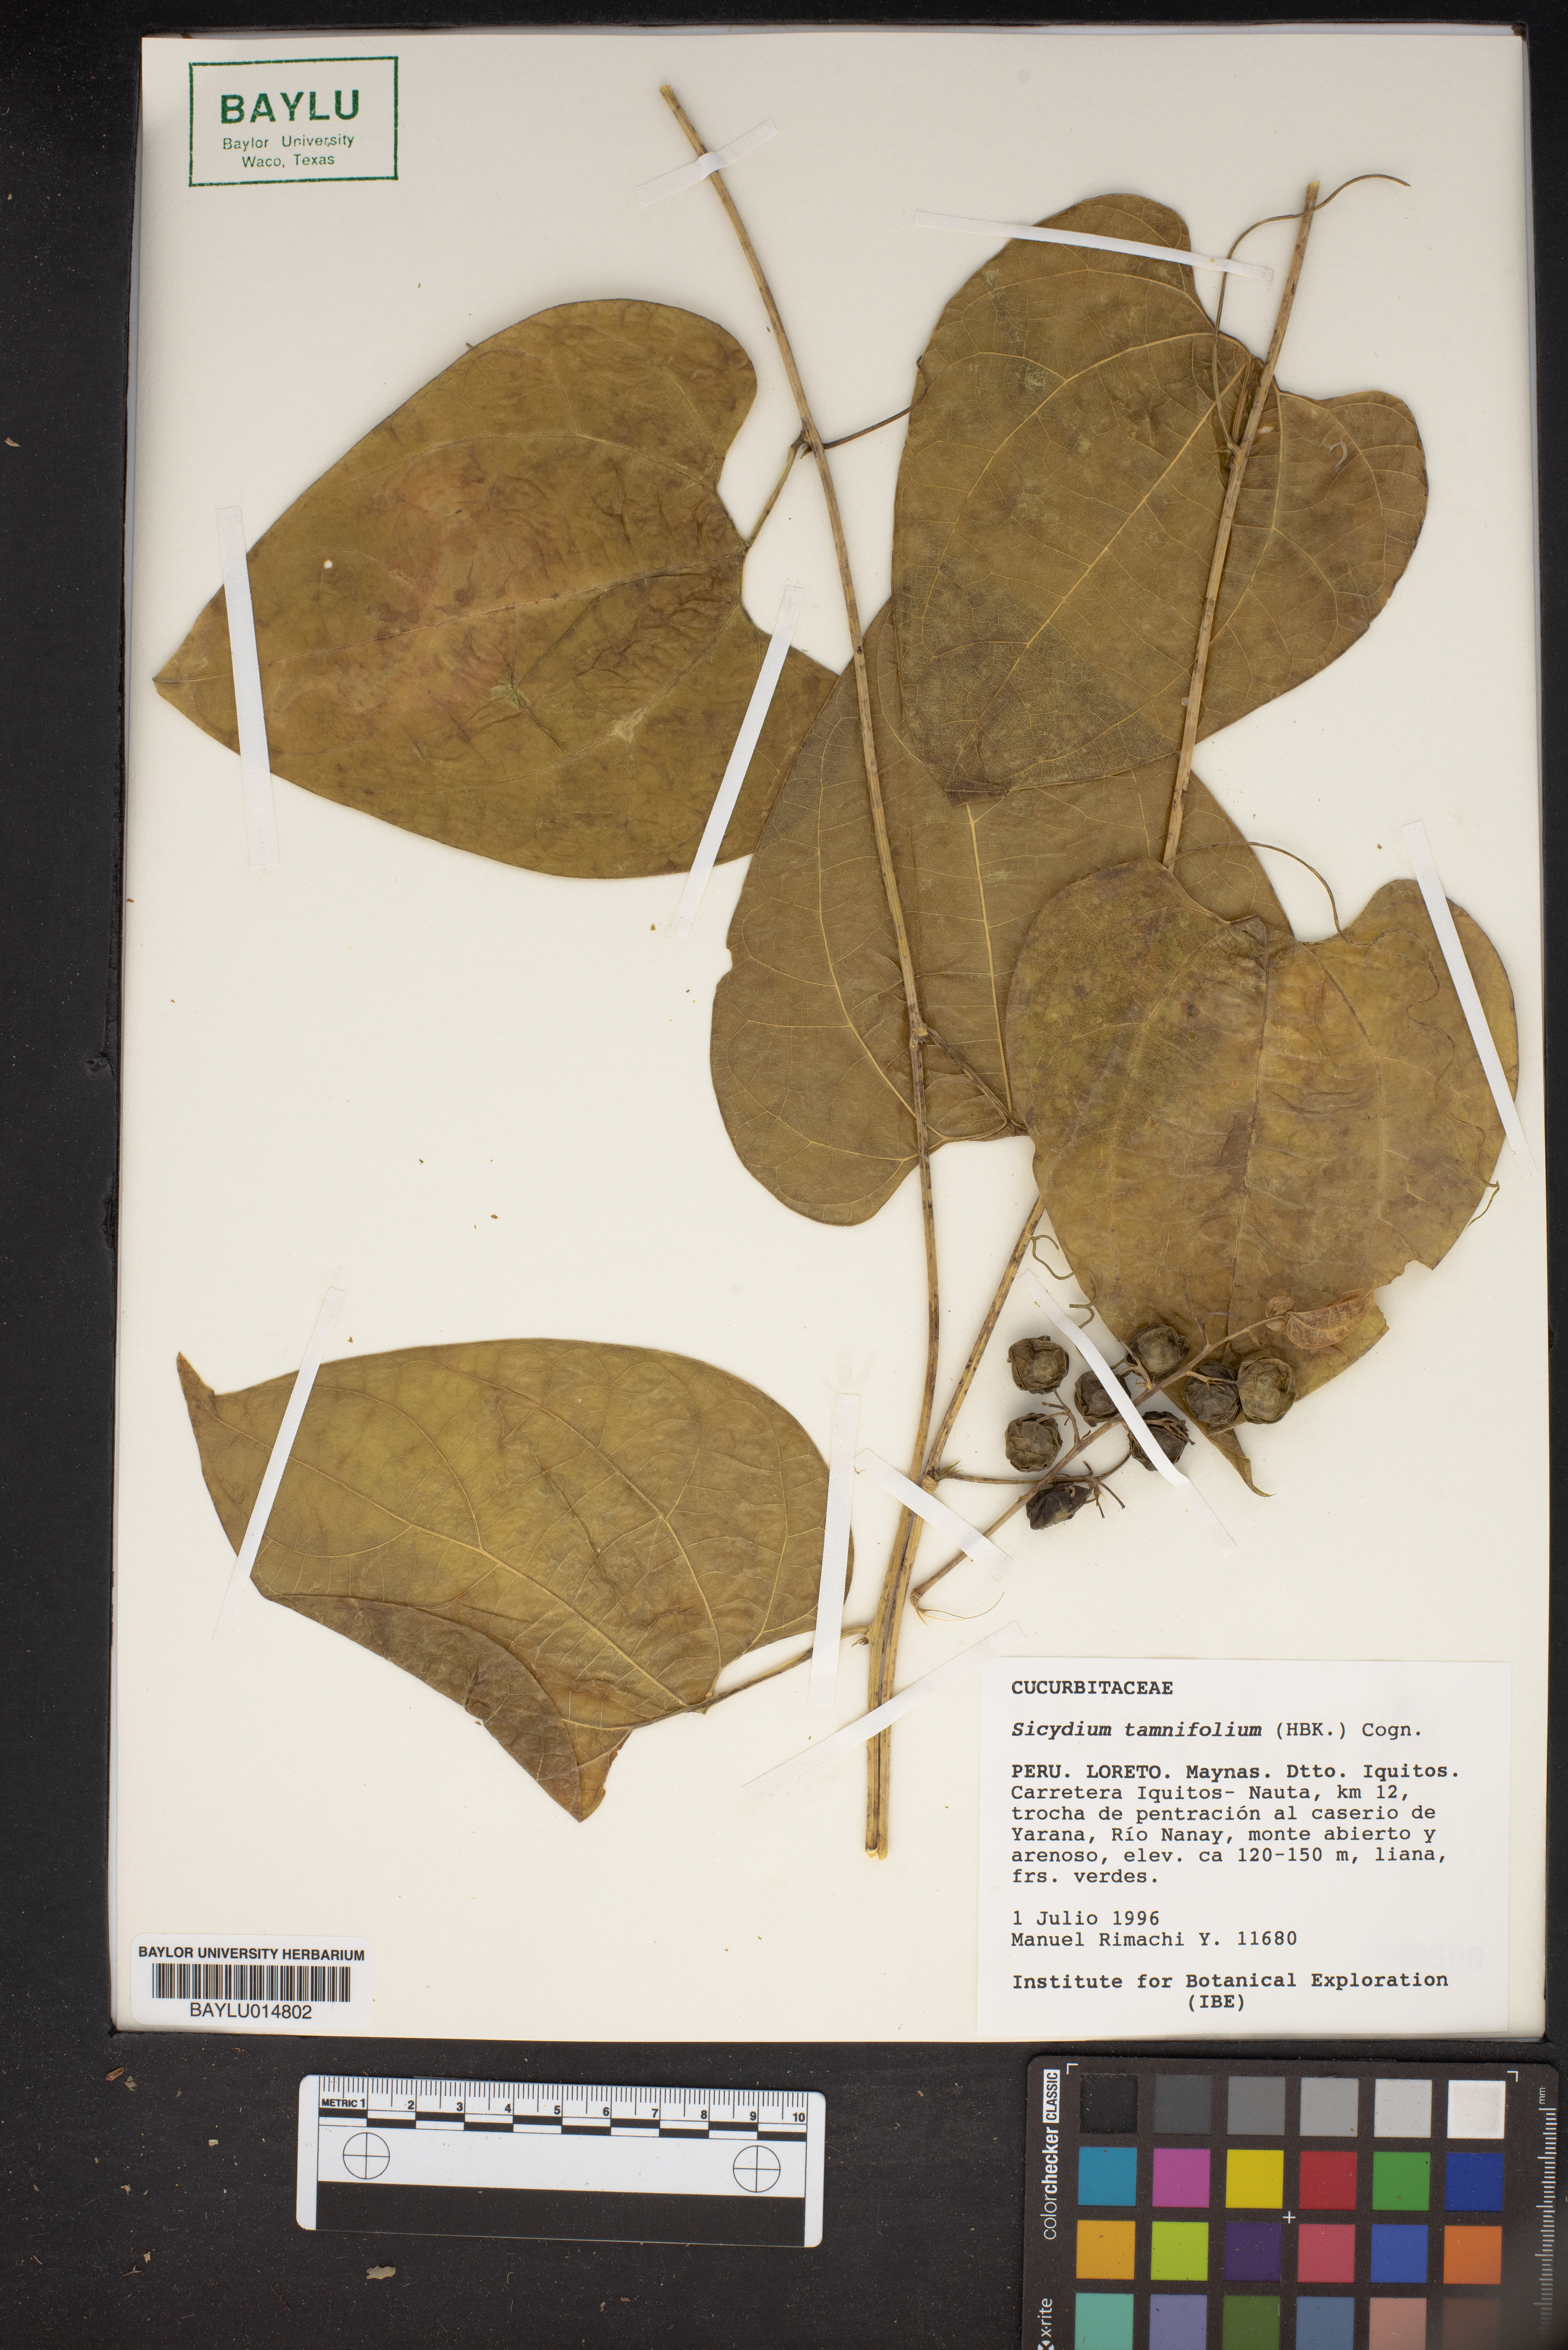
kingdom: Plantae
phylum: Tracheophyta
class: Magnoliopsida
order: Cucurbitales
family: Cucurbitaceae
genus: Sicydium
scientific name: Sicydium tamnifolium
